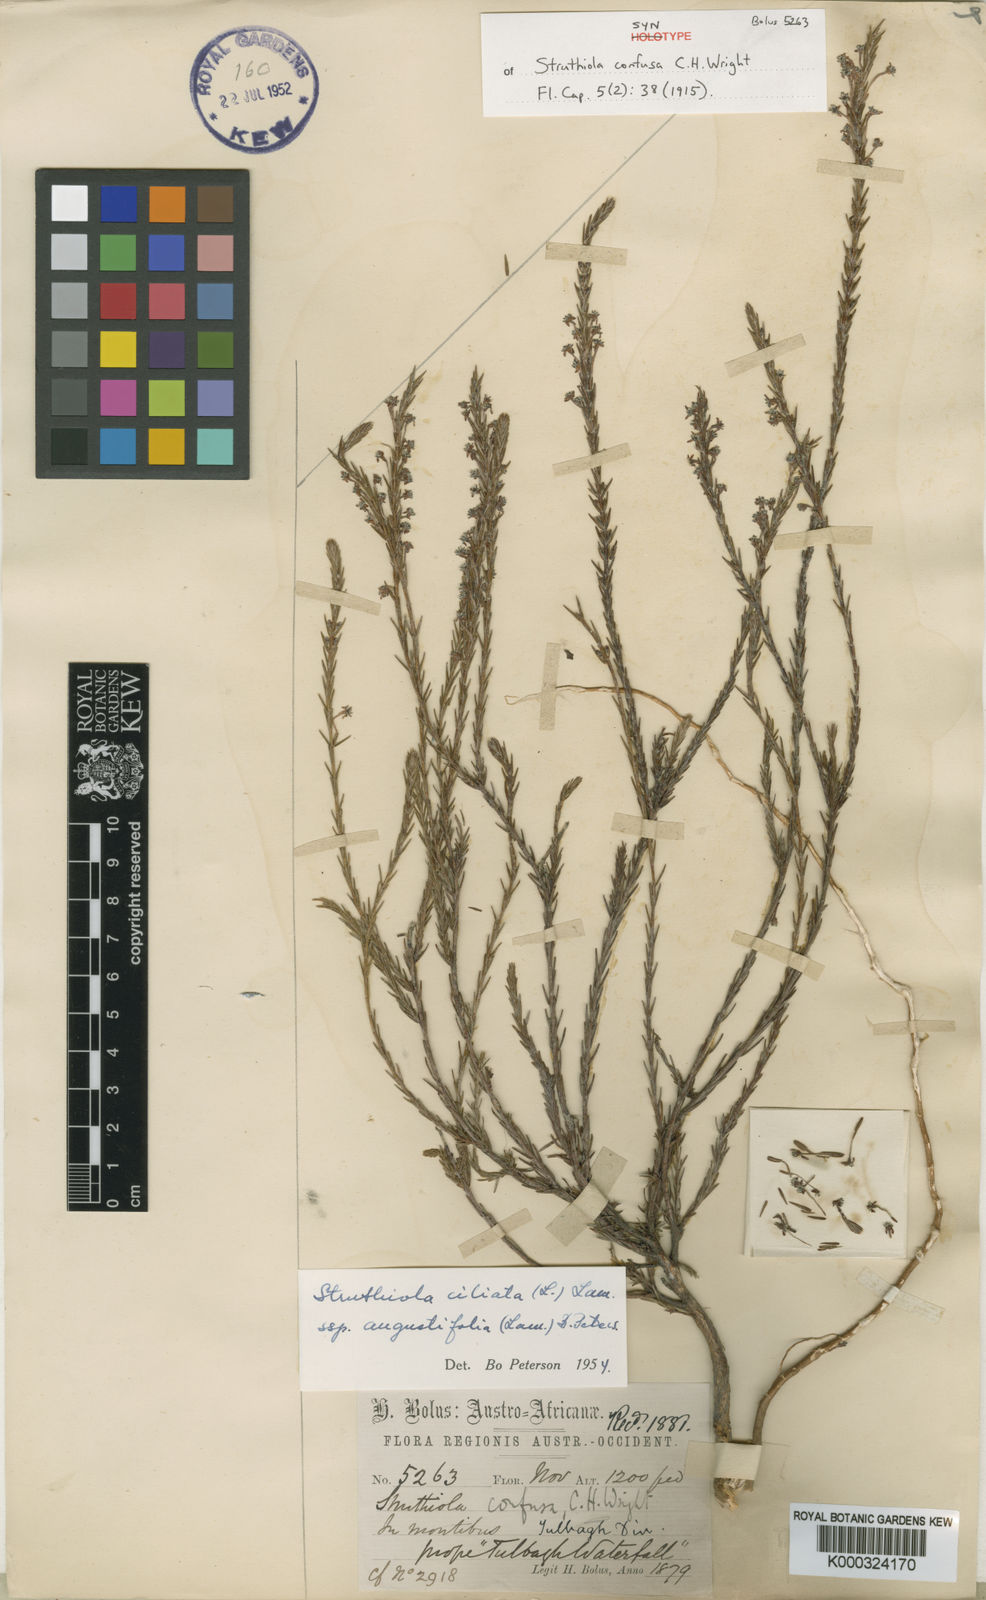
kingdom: Plantae
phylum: Tracheophyta
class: Magnoliopsida
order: Malvales
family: Thymelaeaceae
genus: Struthiola
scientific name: Struthiola confusa
